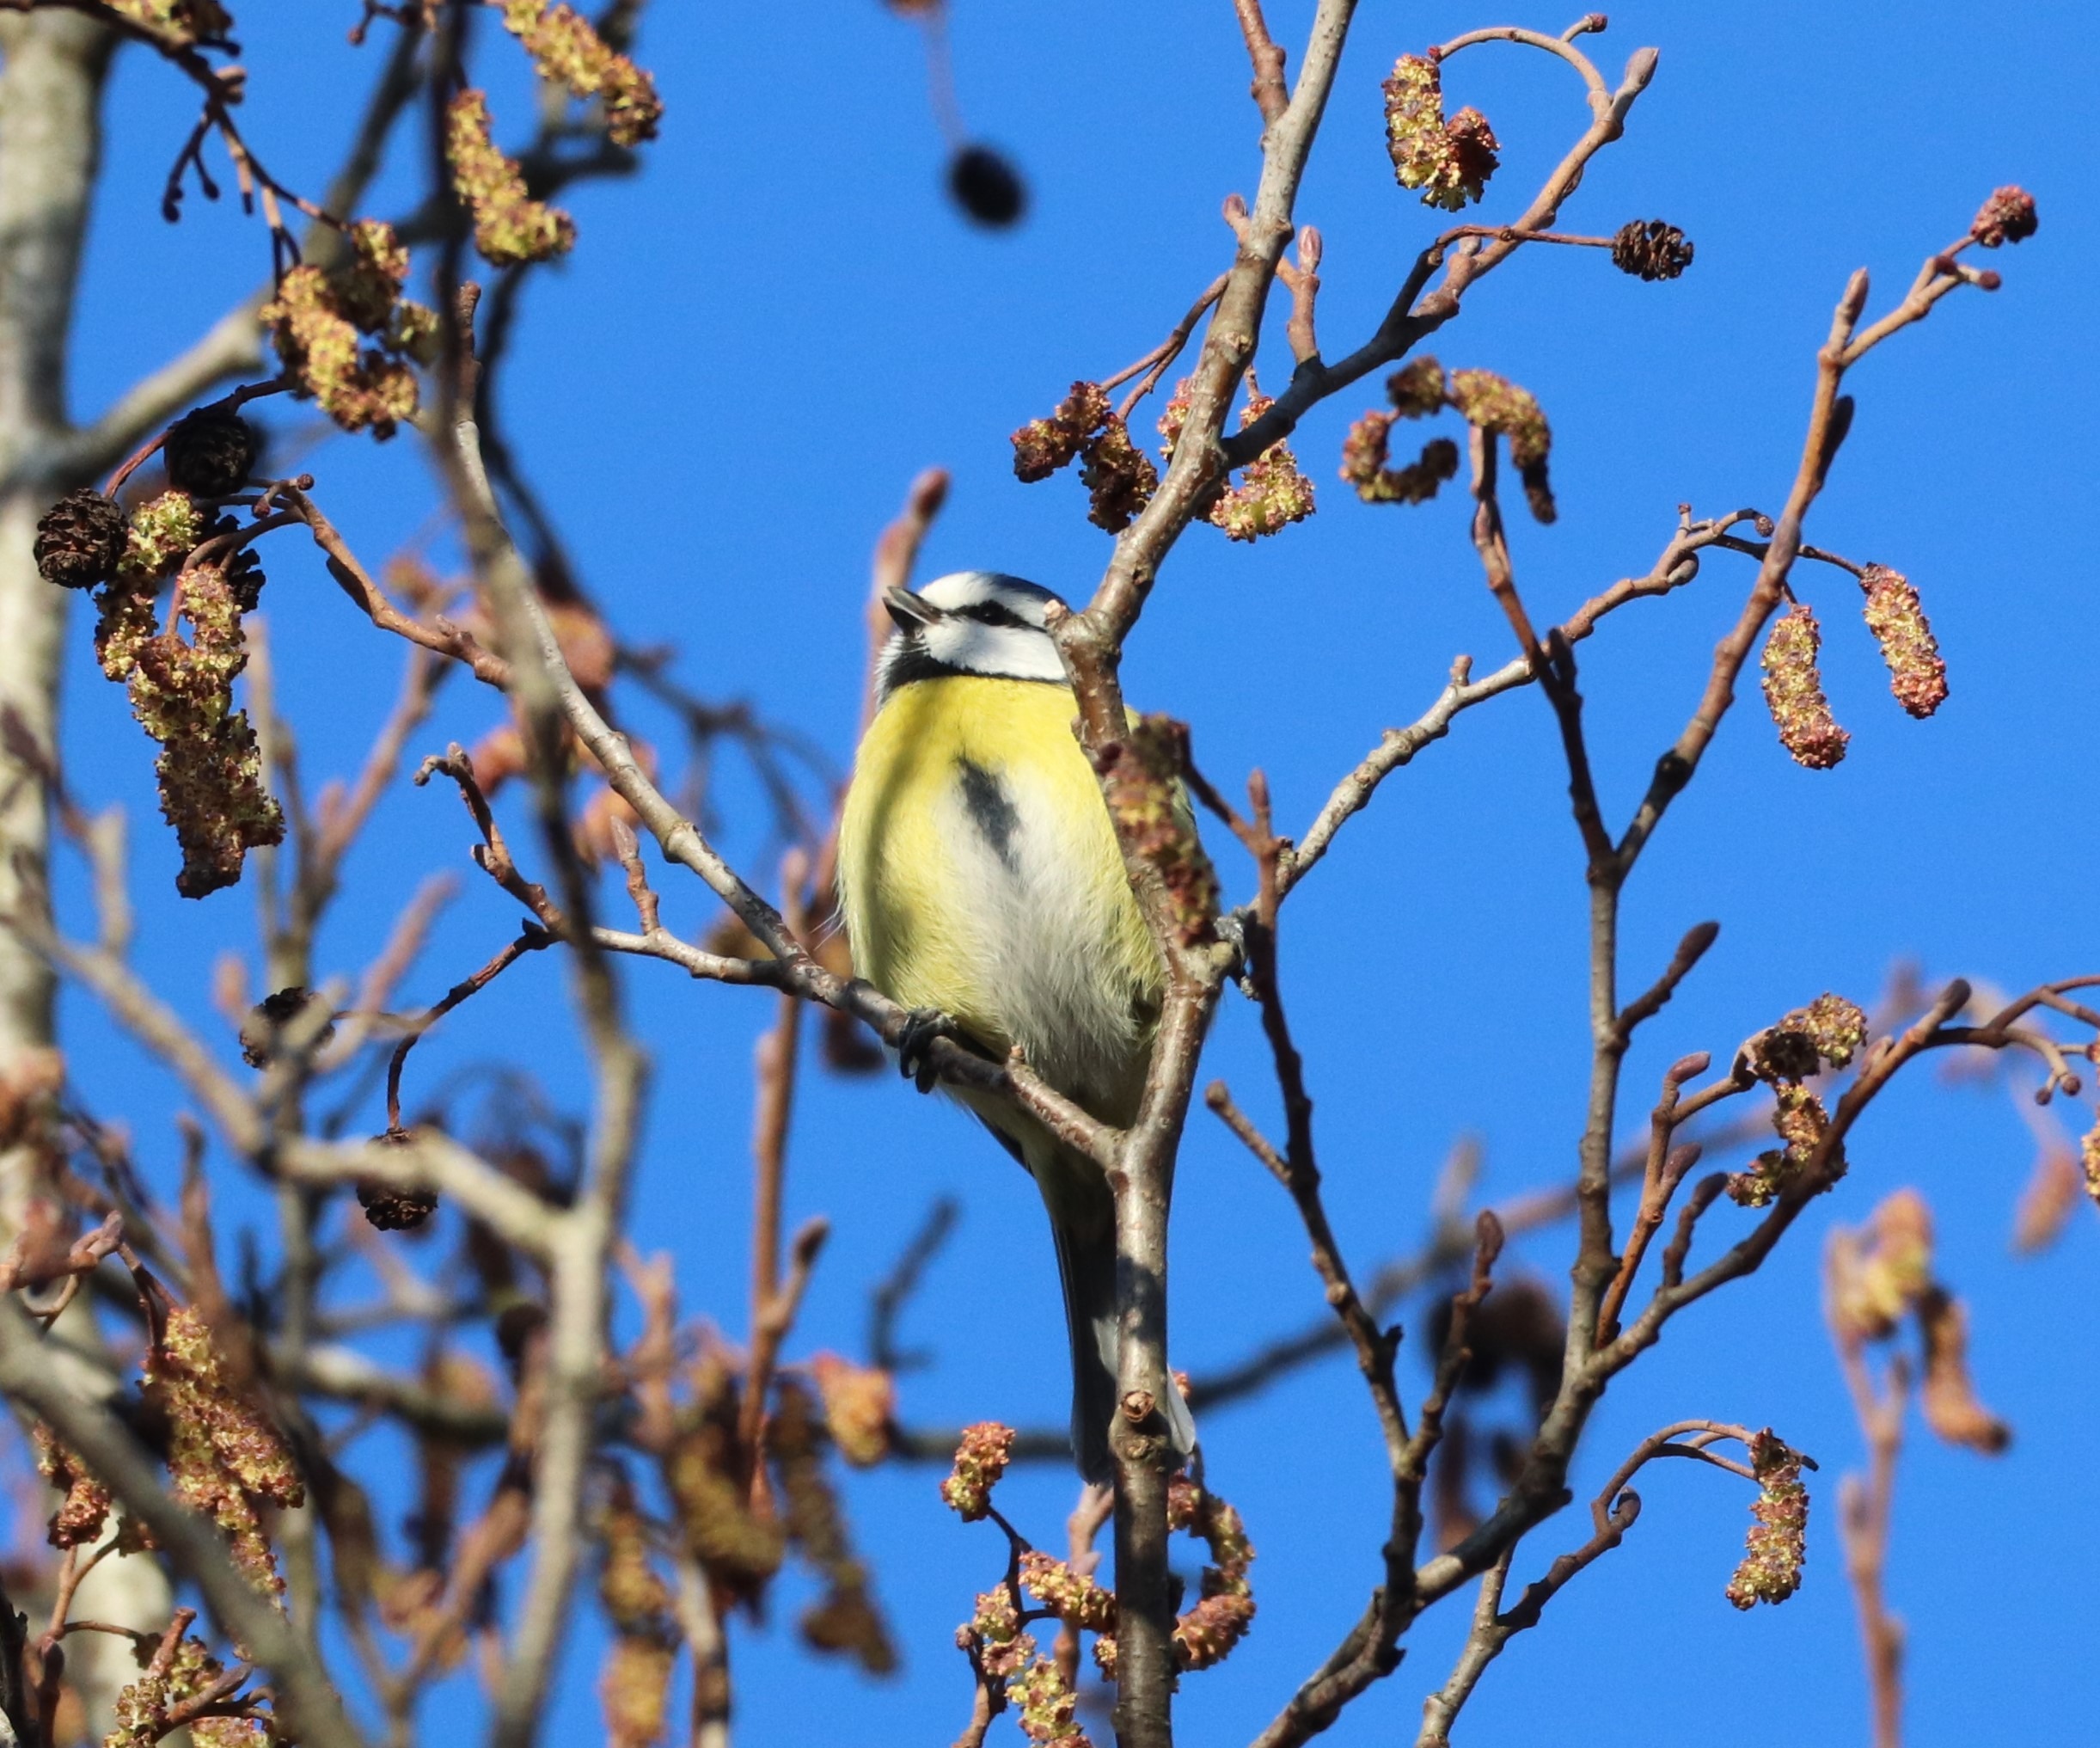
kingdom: Animalia
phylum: Chordata
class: Aves
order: Passeriformes
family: Paridae
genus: Cyanistes
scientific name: Cyanistes caeruleus
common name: Blåmejse
